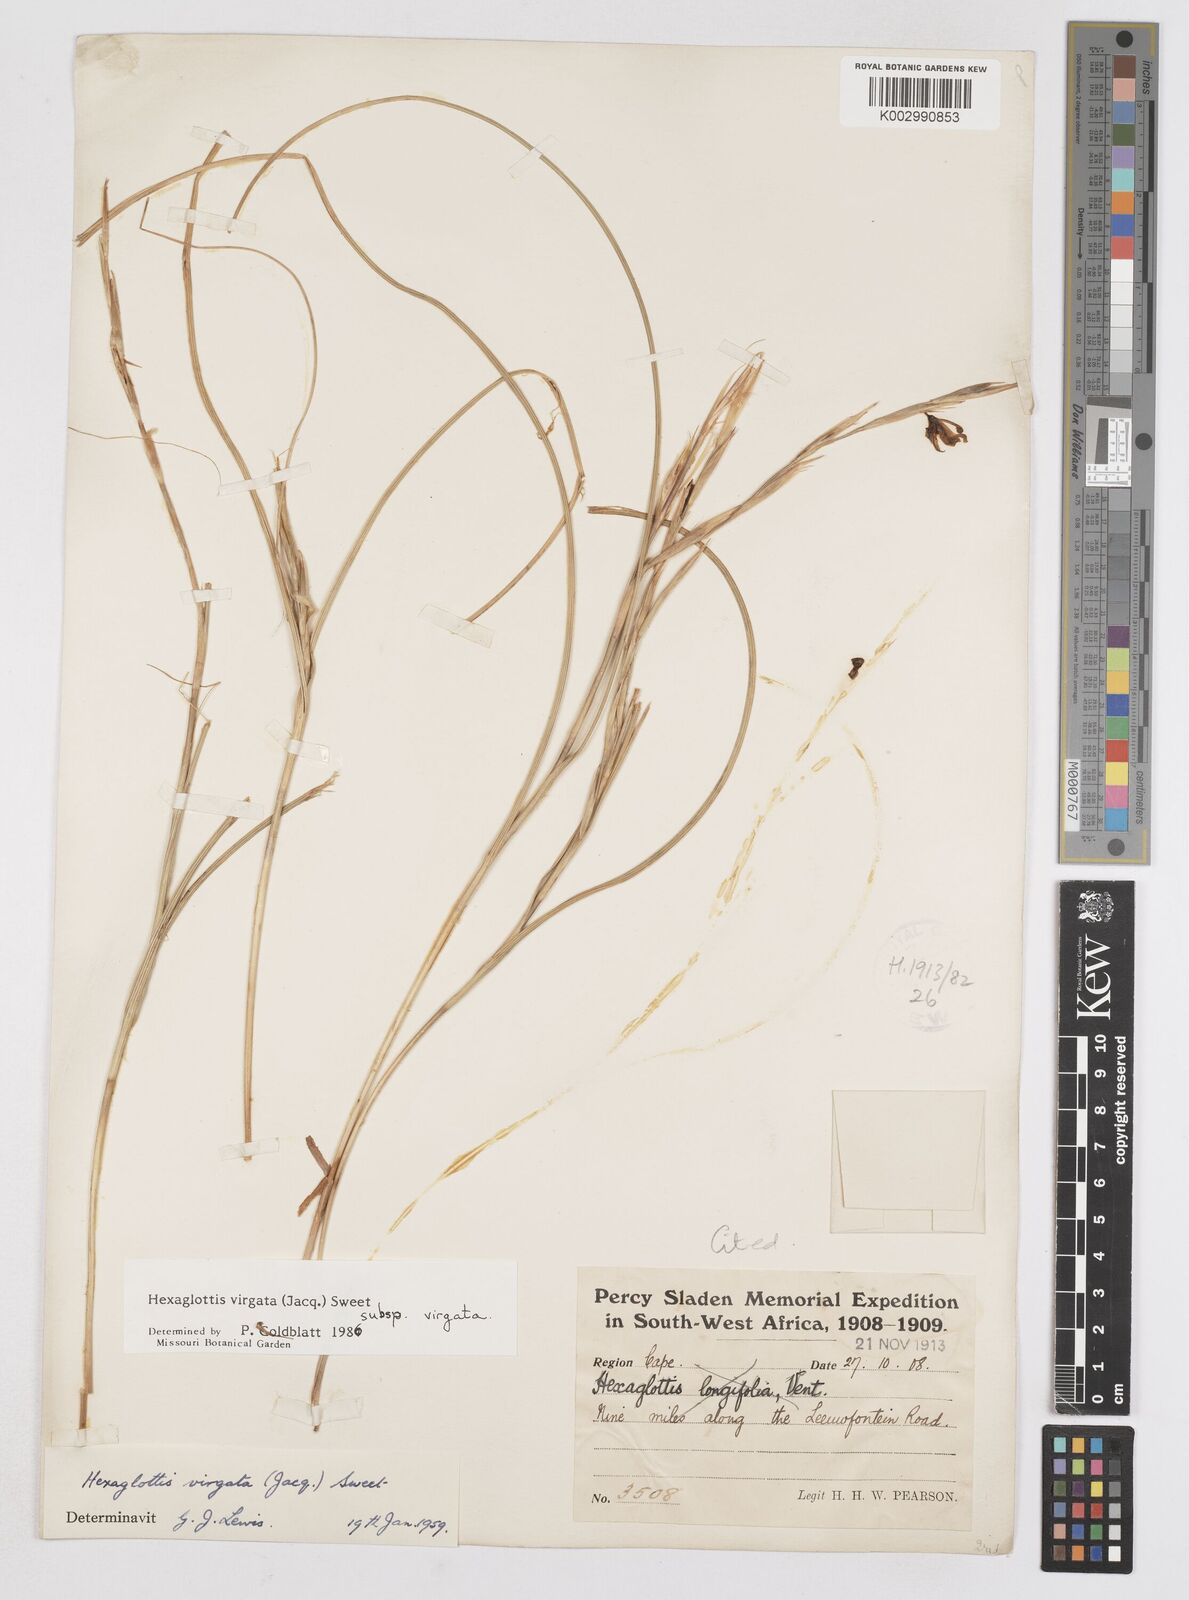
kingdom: Plantae
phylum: Tracheophyta
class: Liliopsida
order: Asparagales
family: Iridaceae
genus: Moraea
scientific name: Moraea virgata
